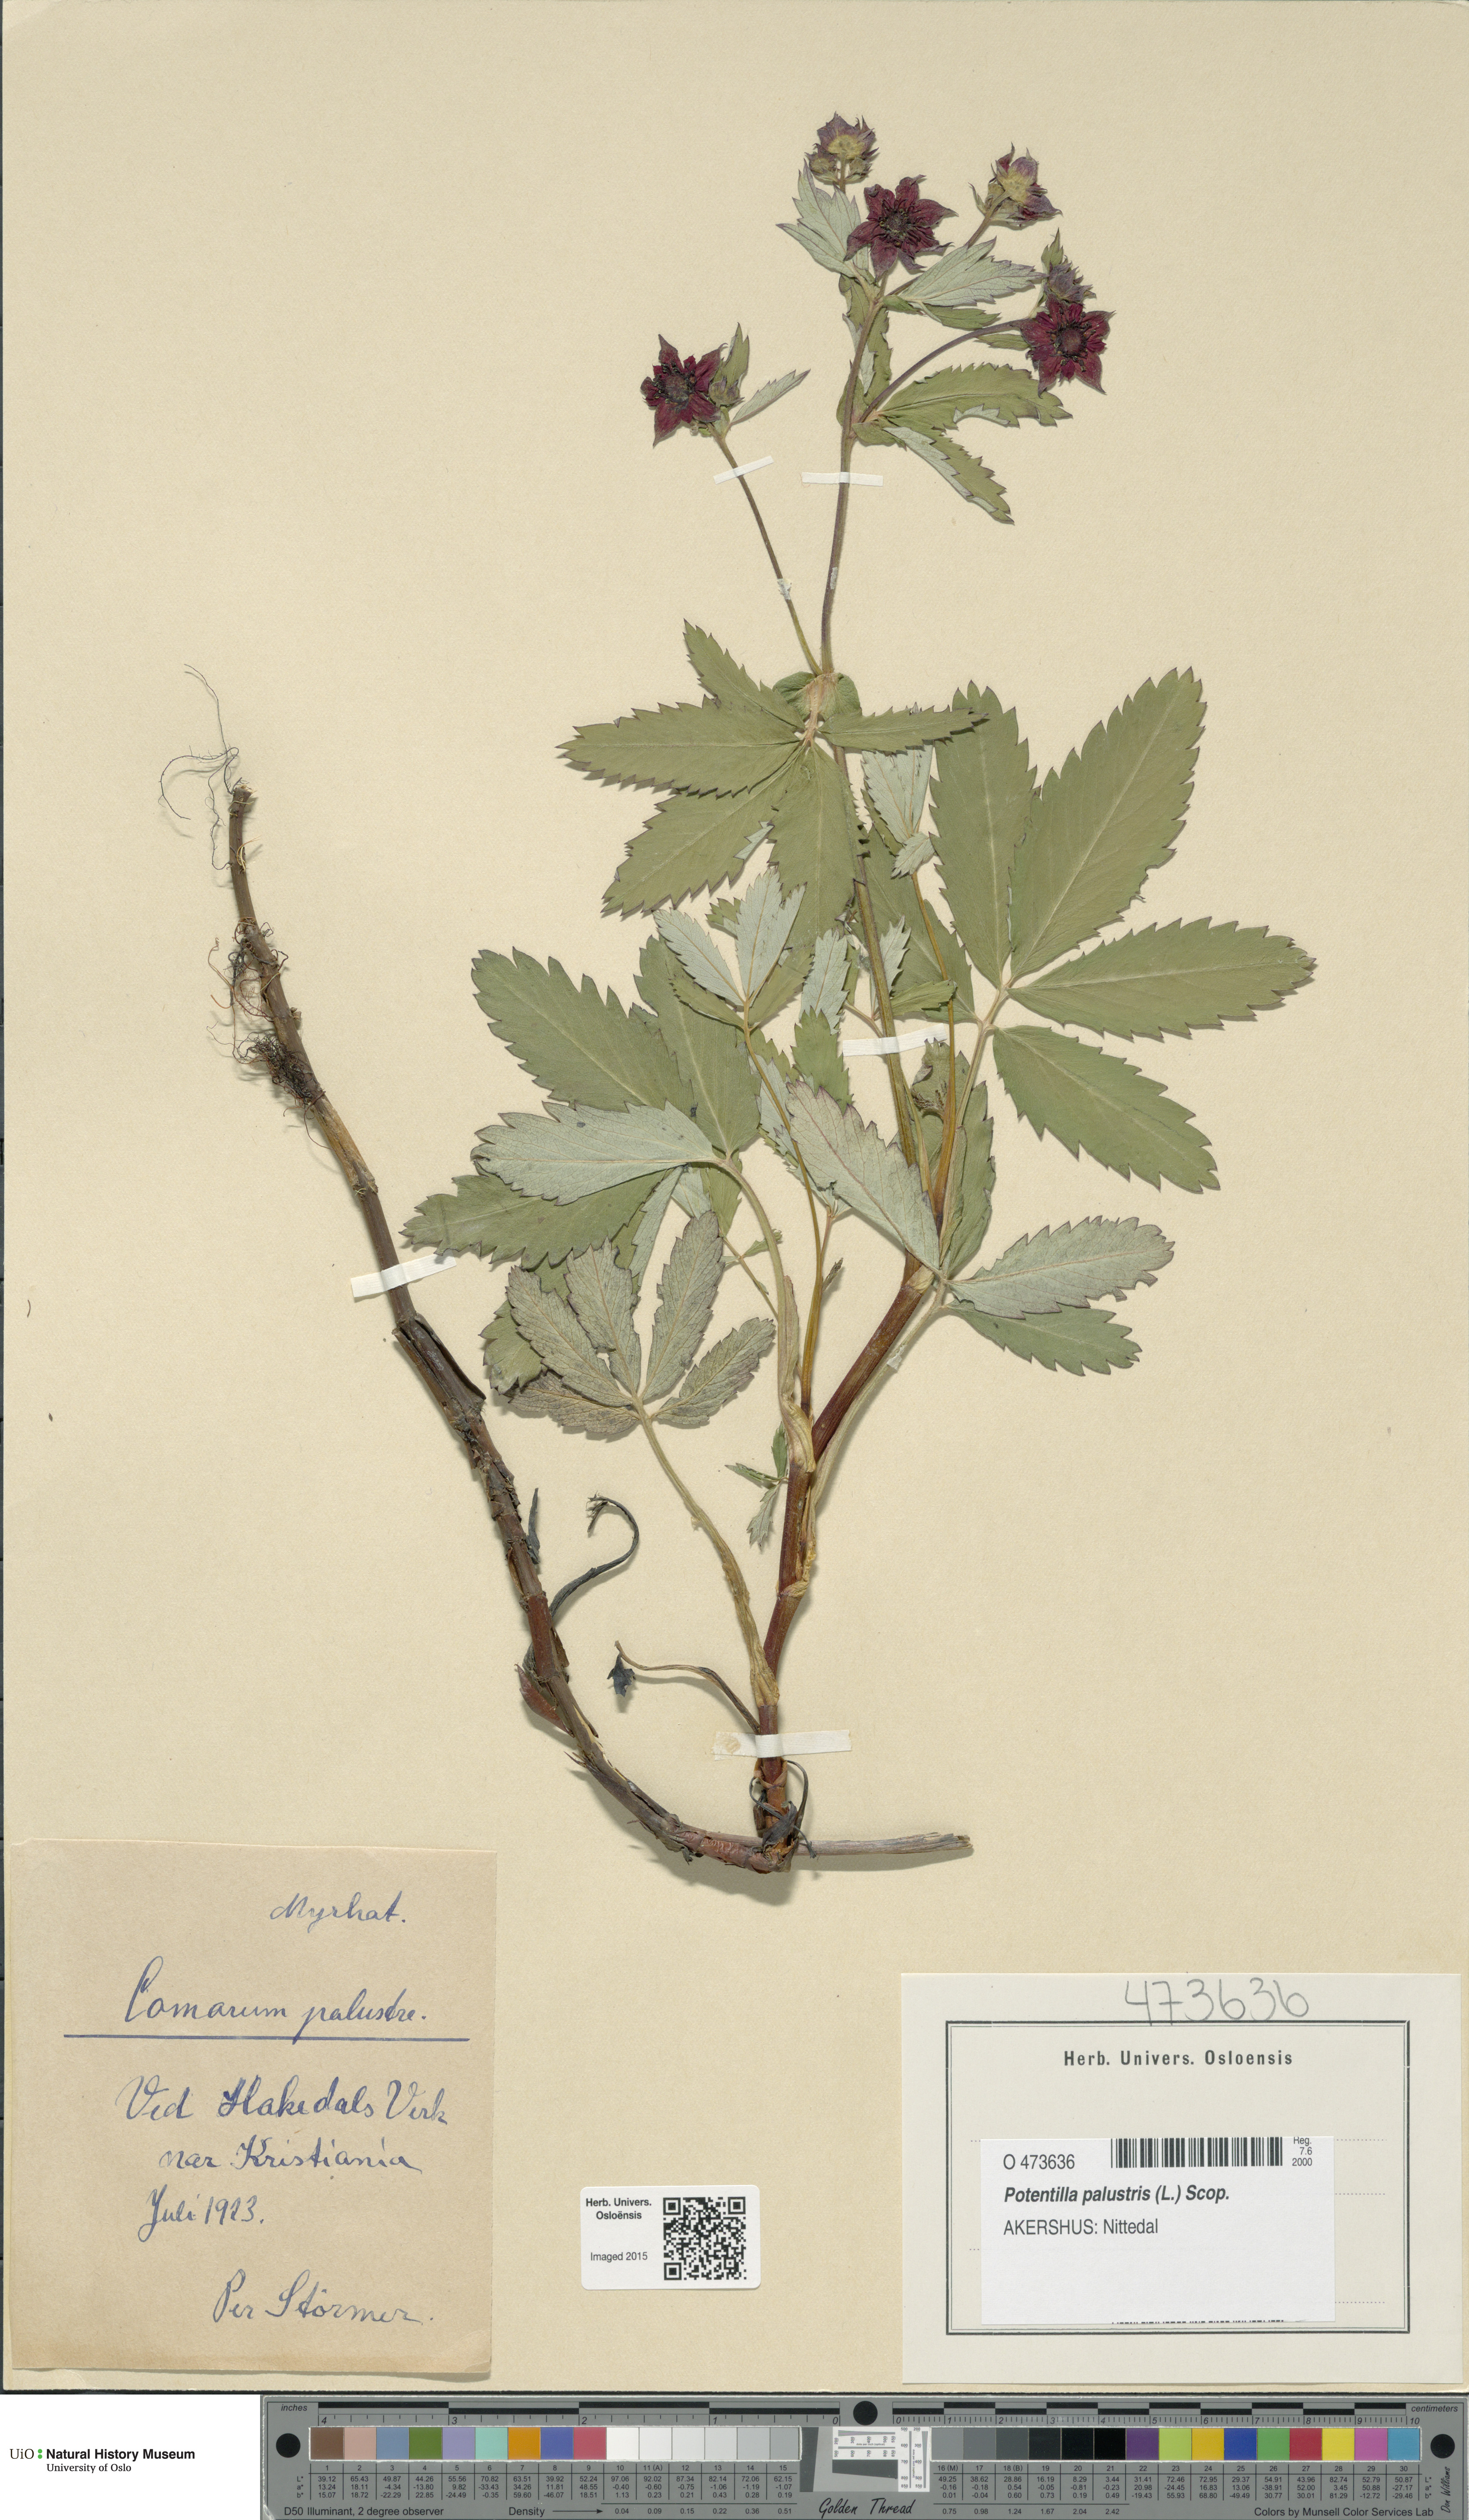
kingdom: Plantae
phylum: Tracheophyta
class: Magnoliopsida
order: Rosales
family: Rosaceae
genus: Comarum
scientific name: Comarum palustre
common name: Marsh cinquefoil
